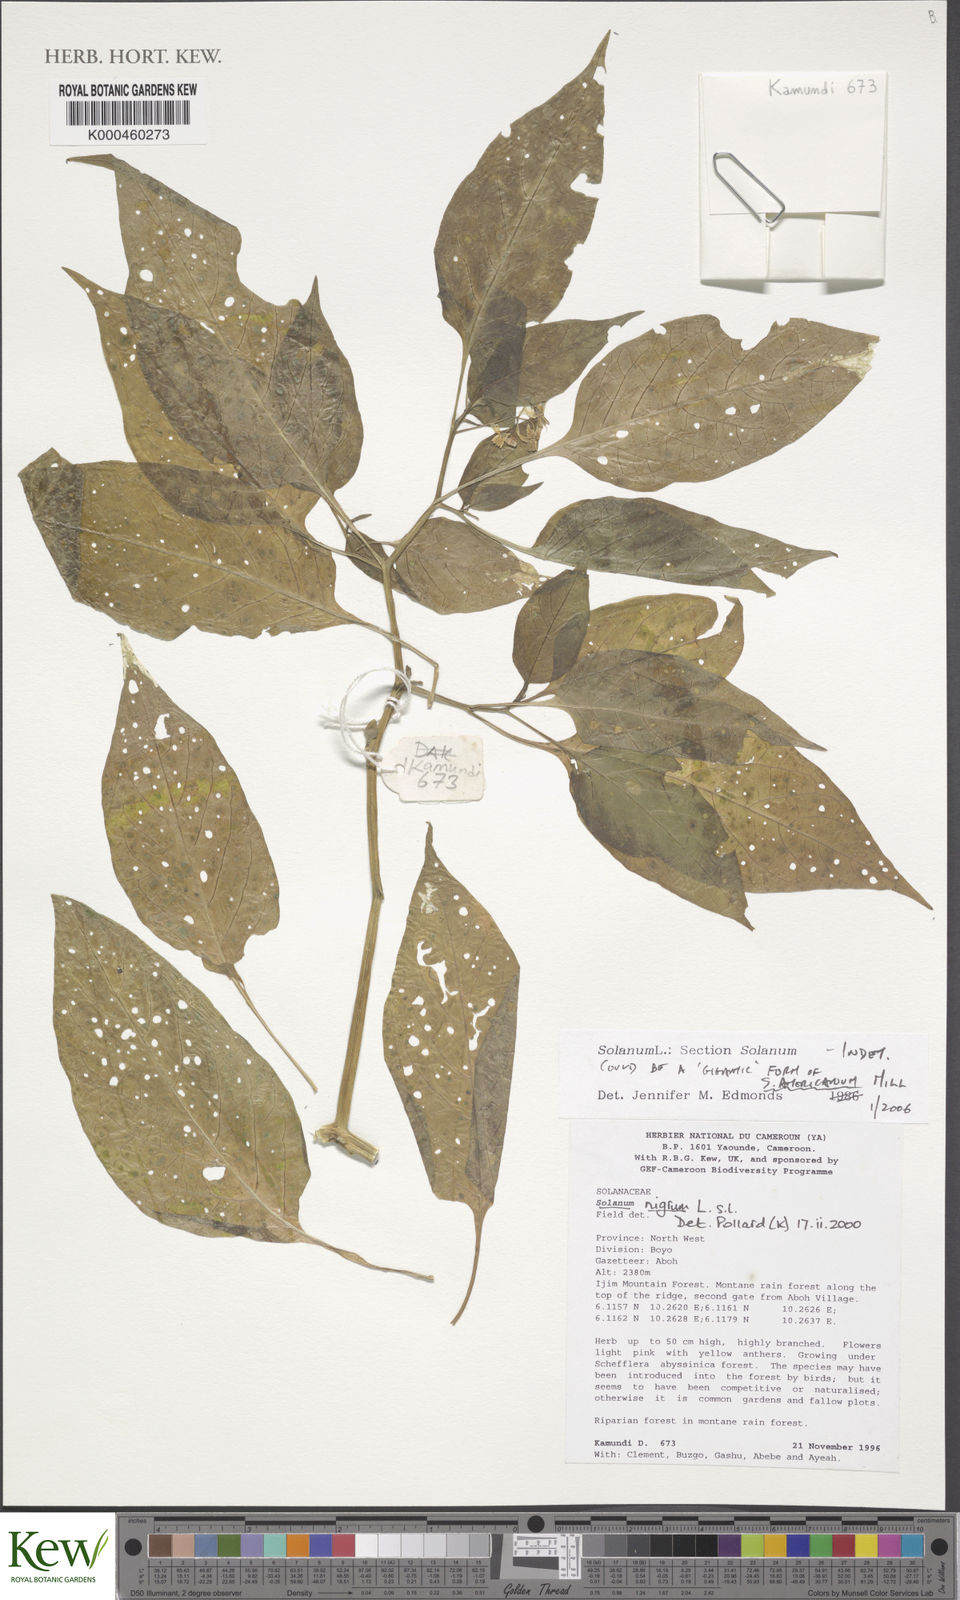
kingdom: Plantae
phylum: Tracheophyta
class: Magnoliopsida
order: Solanales
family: Solanaceae
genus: Solanum
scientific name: Solanum americanum
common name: American black nightshade
